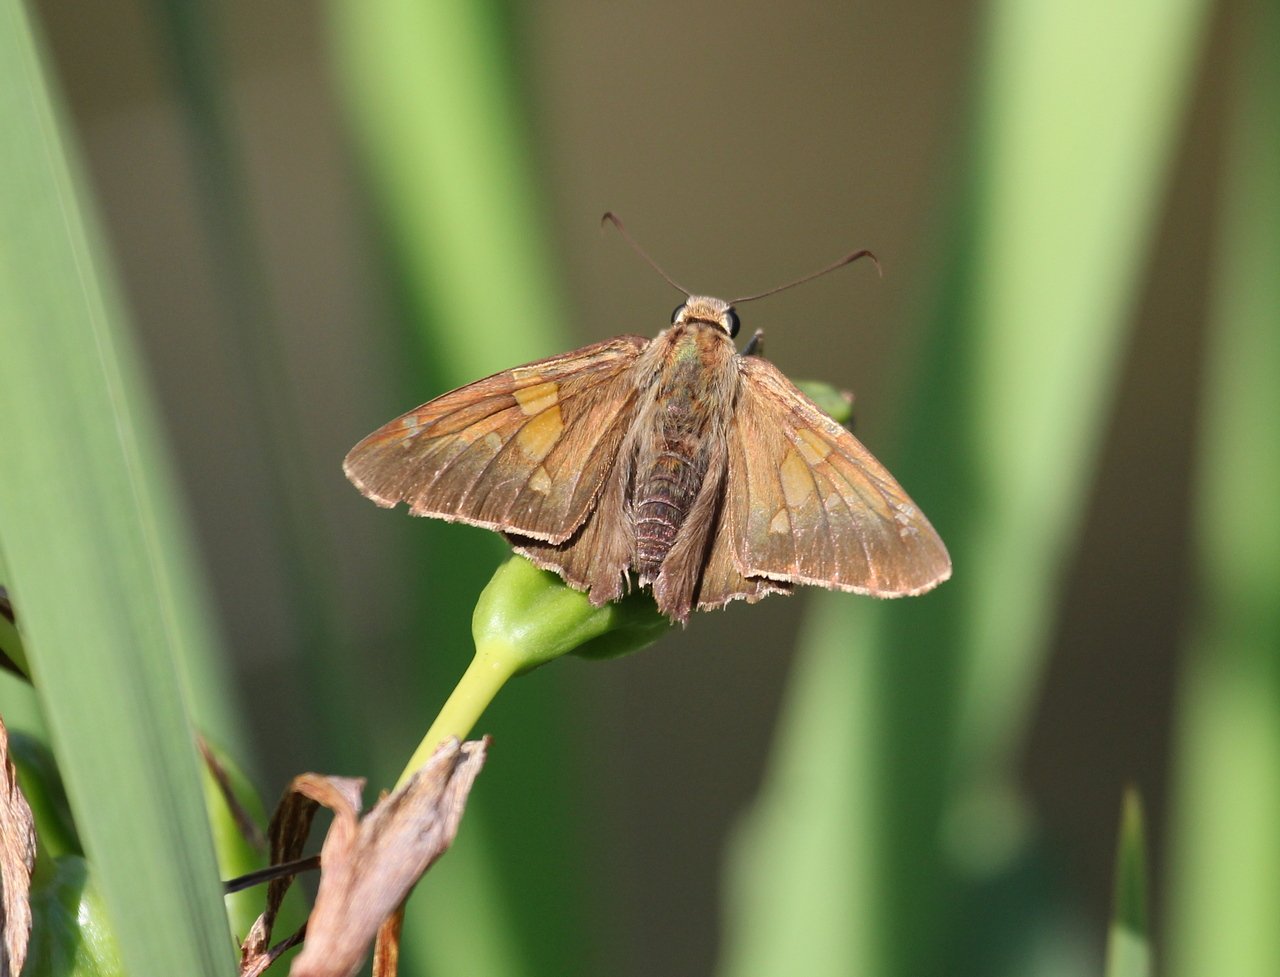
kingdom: Animalia
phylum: Arthropoda
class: Insecta
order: Lepidoptera
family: Hesperiidae
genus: Epargyreus
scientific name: Epargyreus clarus
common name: Silver-spotted Skipper
